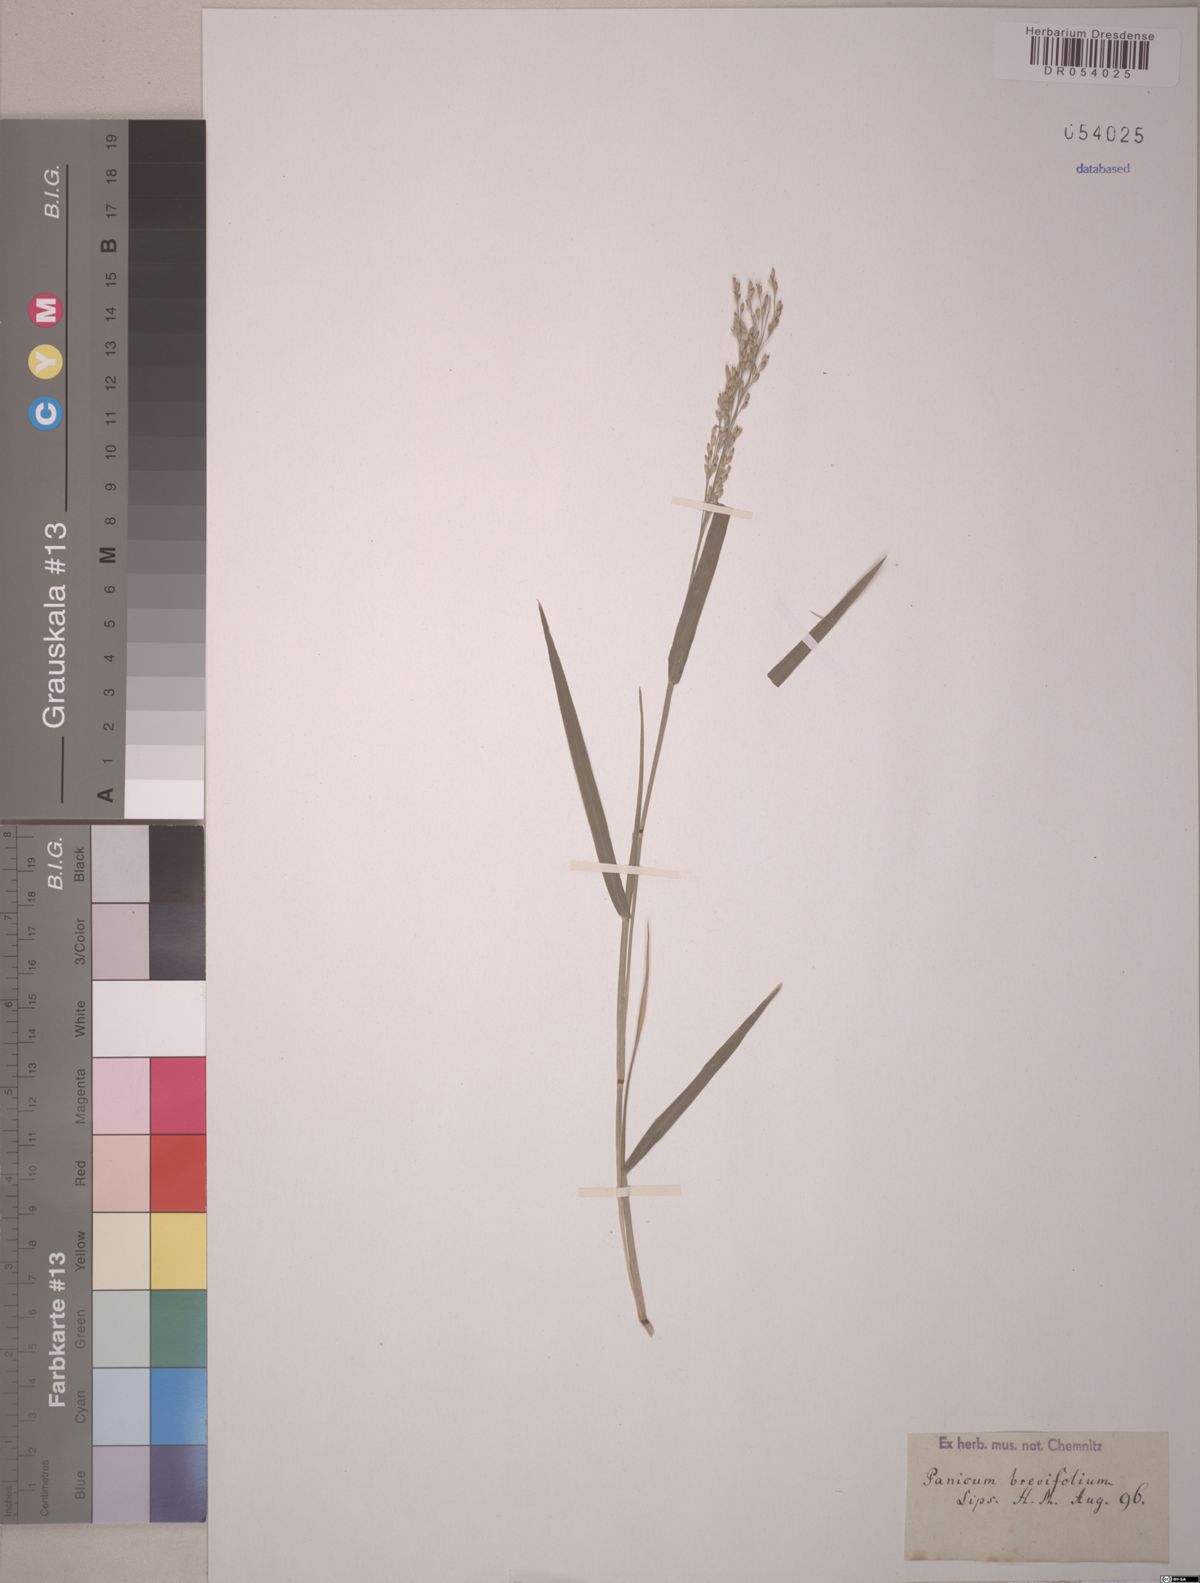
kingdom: Plantae
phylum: Tracheophyta
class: Liliopsida
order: Poales
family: Poaceae
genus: Panicum
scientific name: Panicum brevifolium
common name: Shortleaf panic grass
